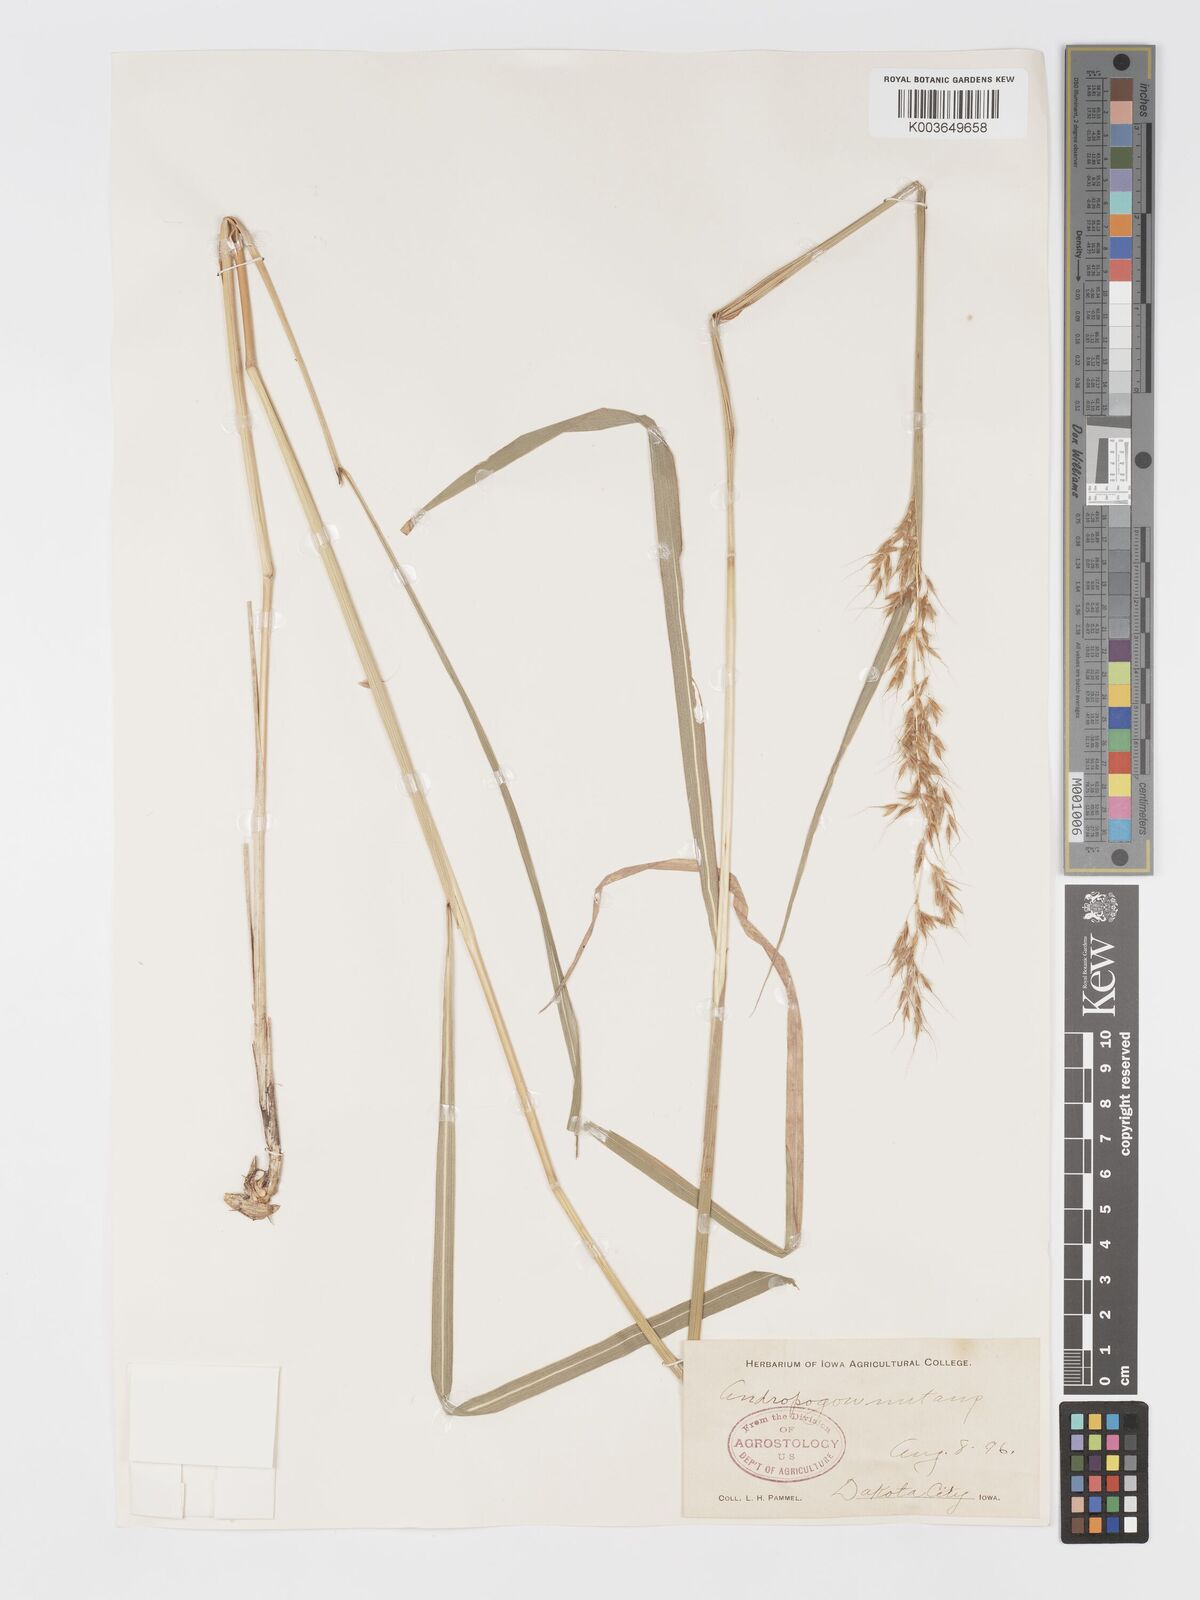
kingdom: Plantae
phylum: Tracheophyta
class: Liliopsida
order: Poales
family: Poaceae
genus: Sorghastrum
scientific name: Sorghastrum nutans
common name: Indian grass
